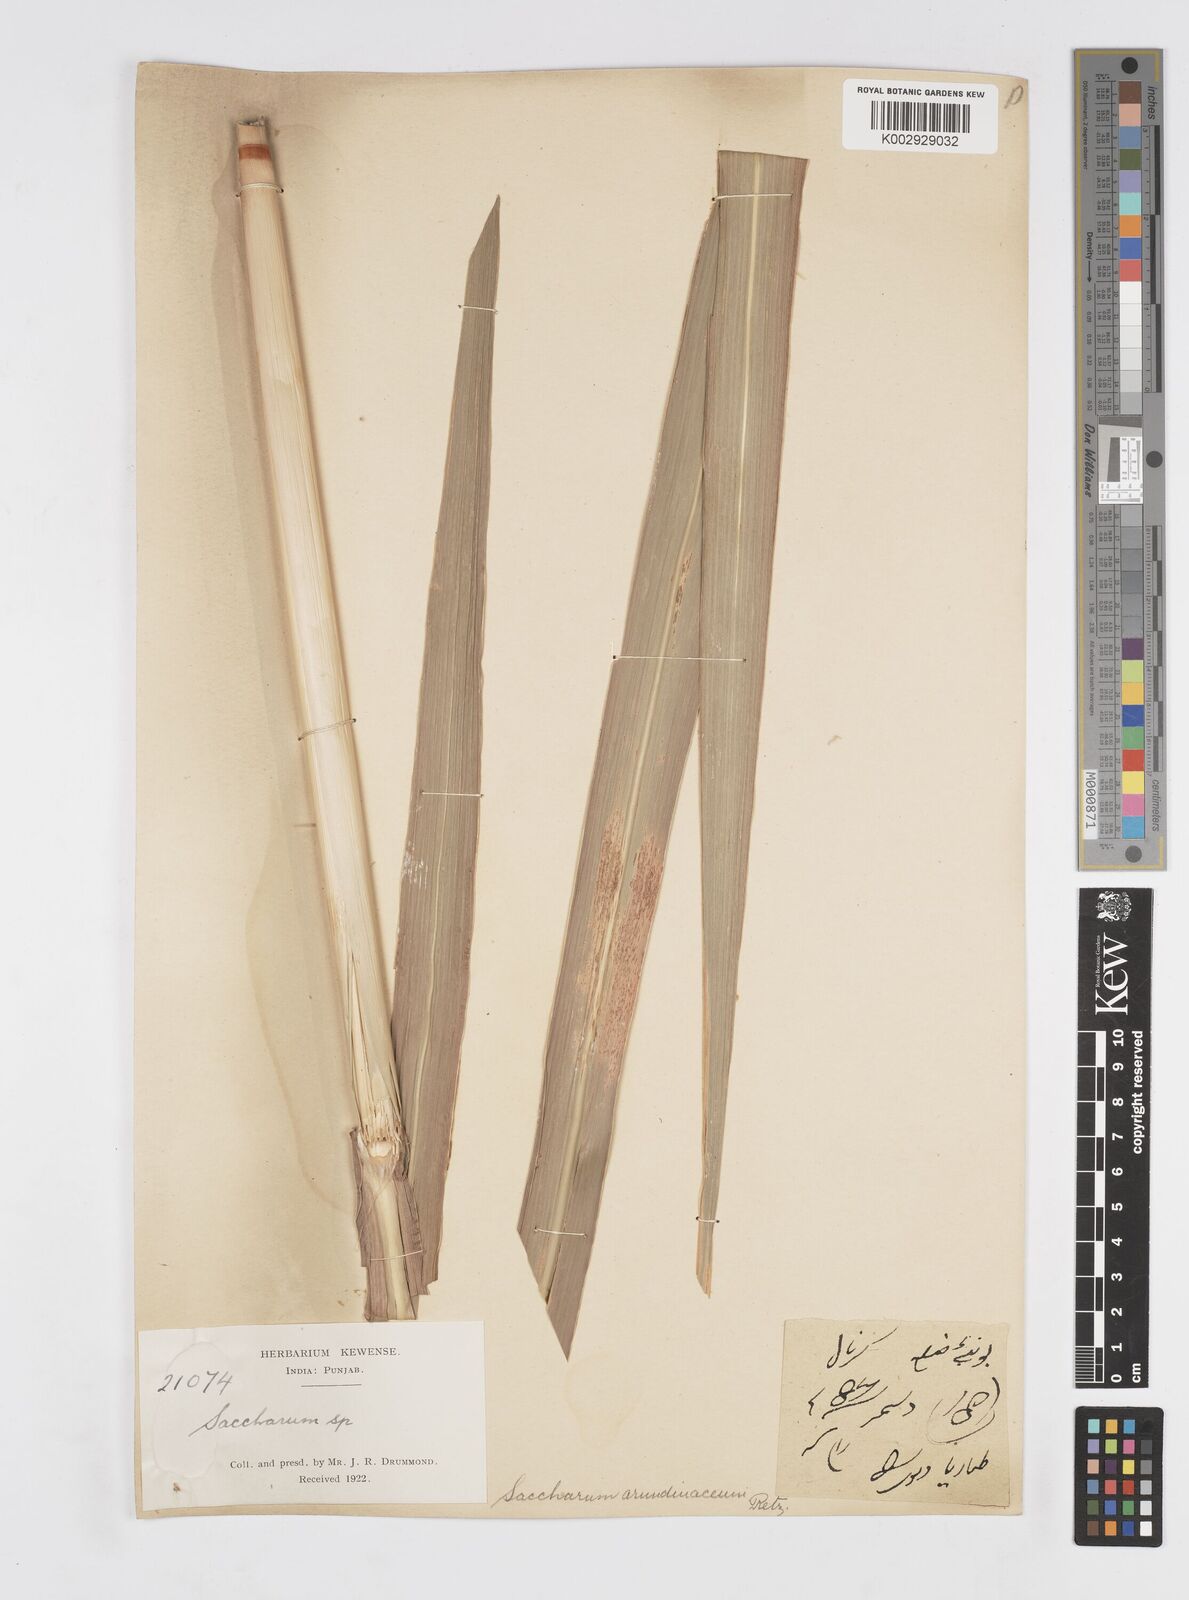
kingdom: Plantae
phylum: Tracheophyta
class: Liliopsida
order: Poales
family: Poaceae
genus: Tripidium
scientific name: Tripidium arundinaceum
